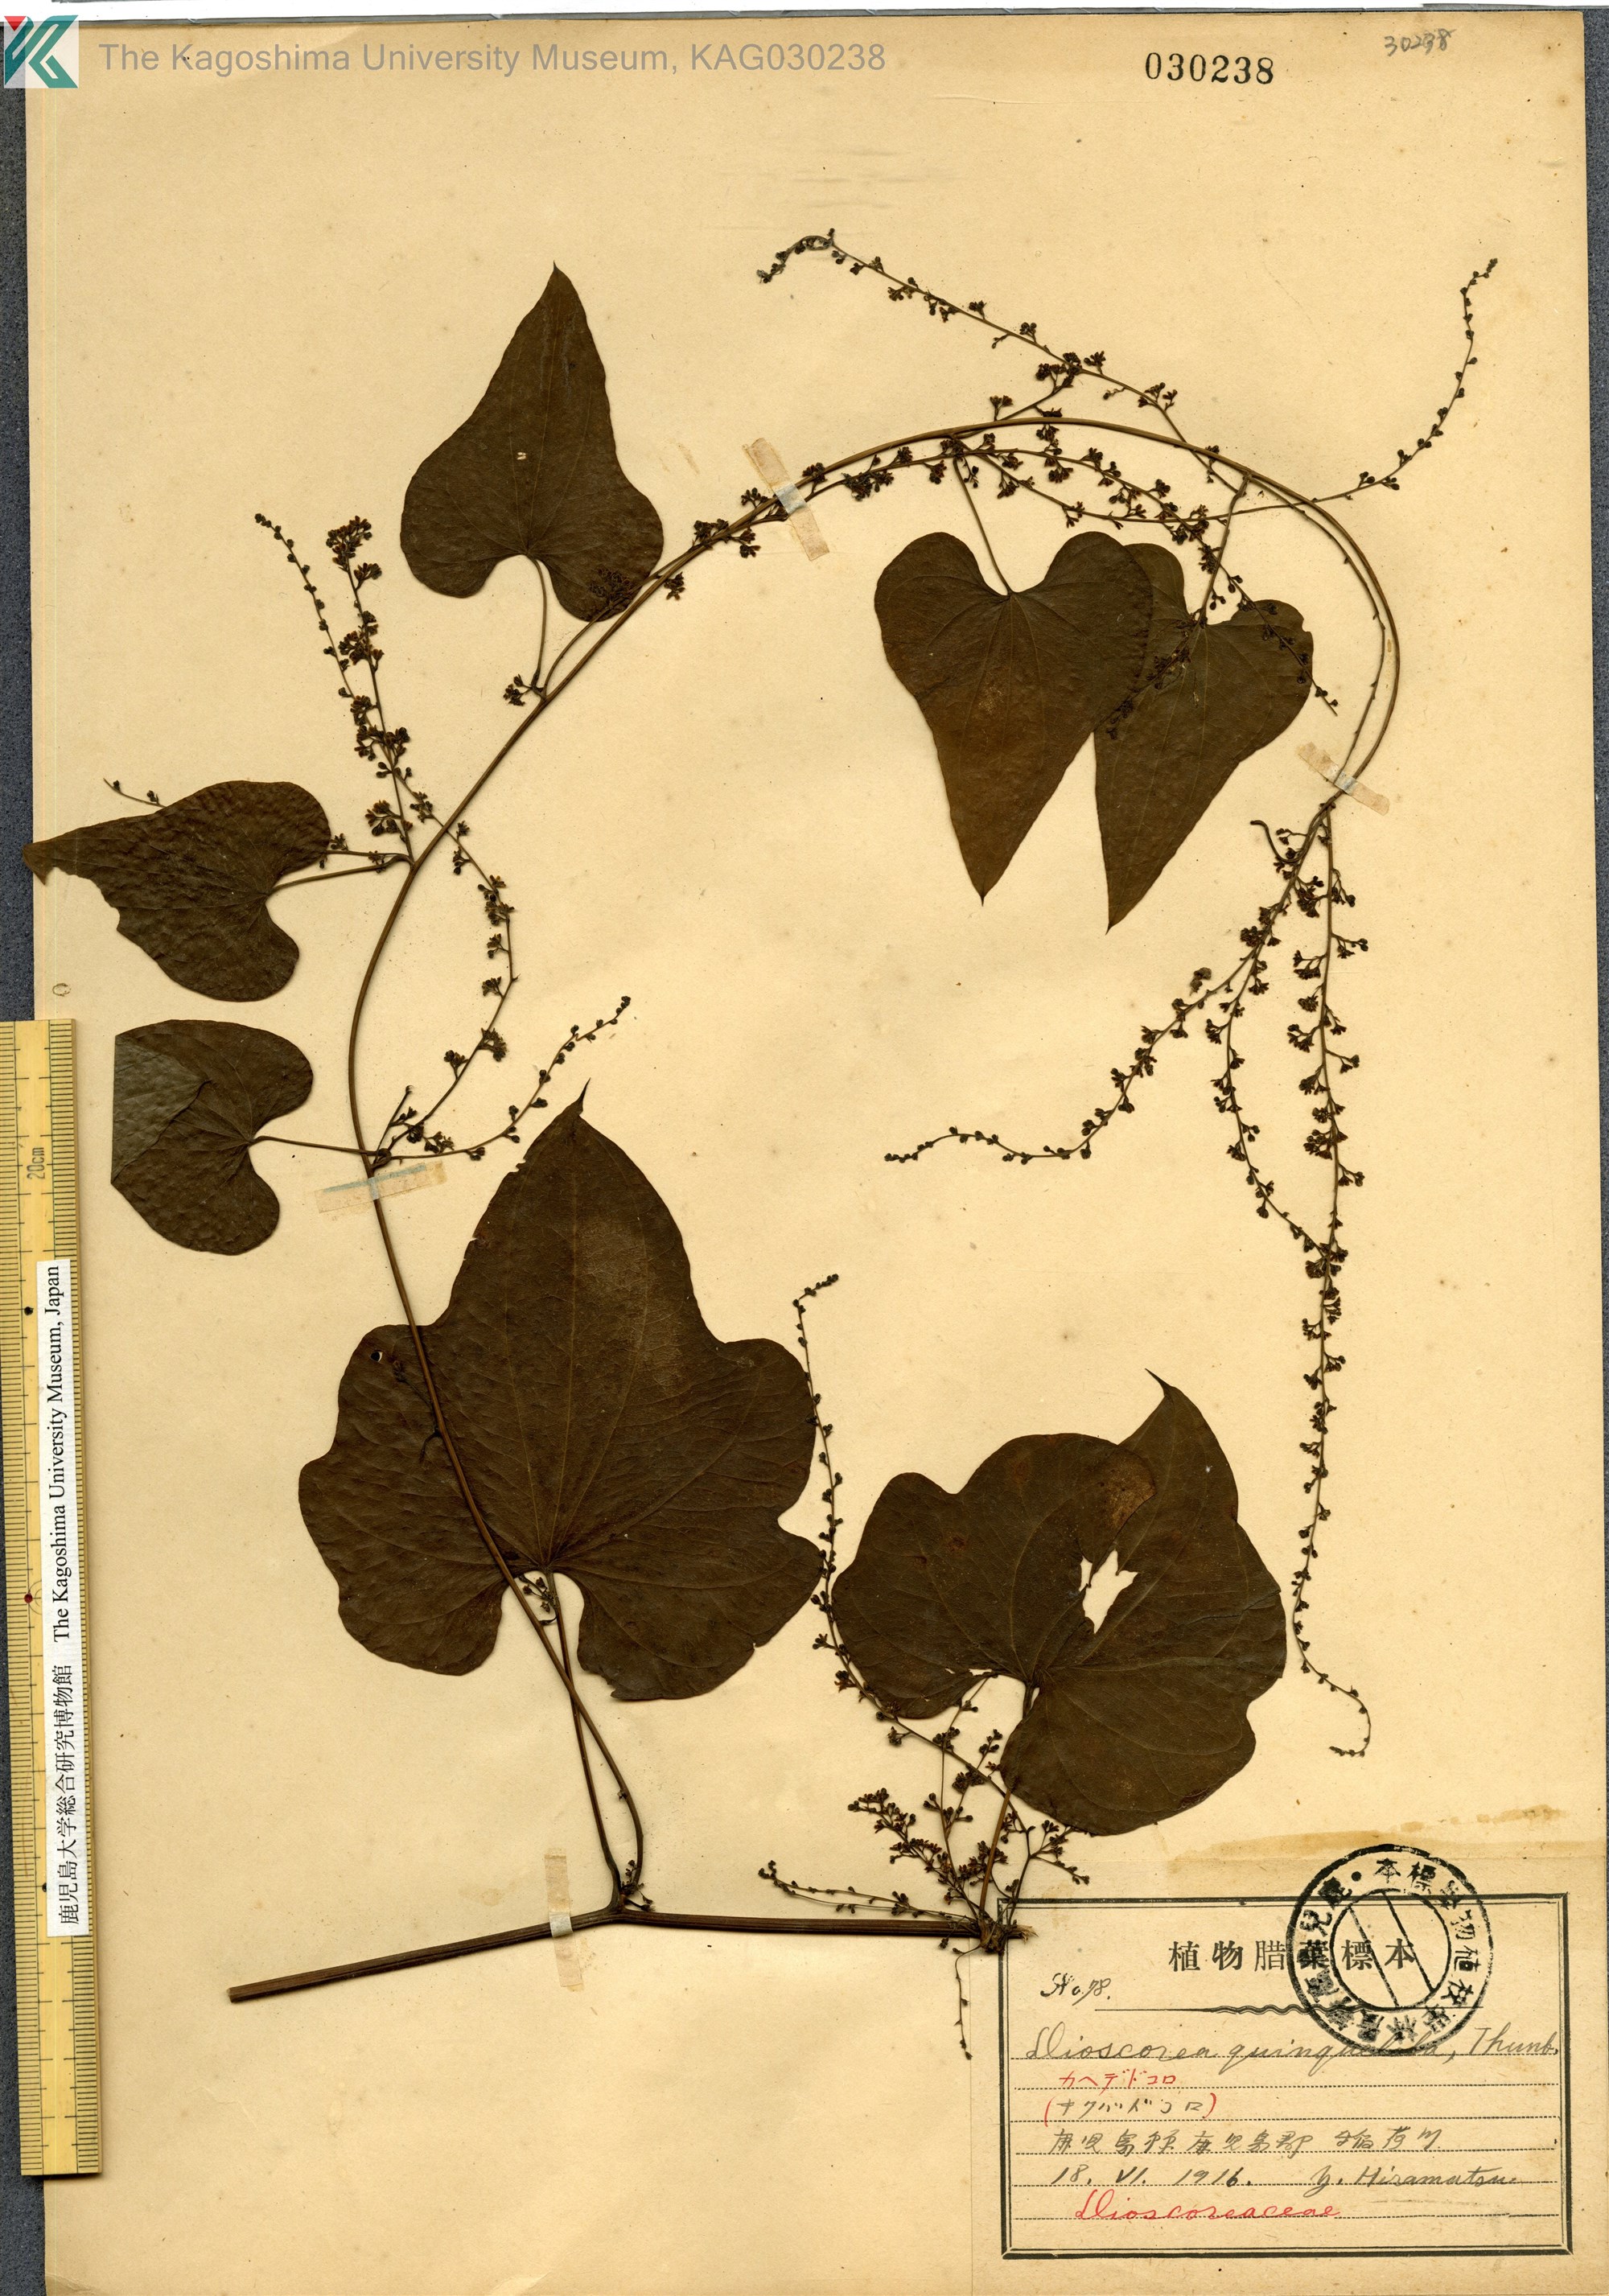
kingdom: Plantae
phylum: Tracheophyta
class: Liliopsida
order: Dioscoreales
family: Dioscoreaceae
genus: Dioscorea
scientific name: Dioscorea quinquelobata
